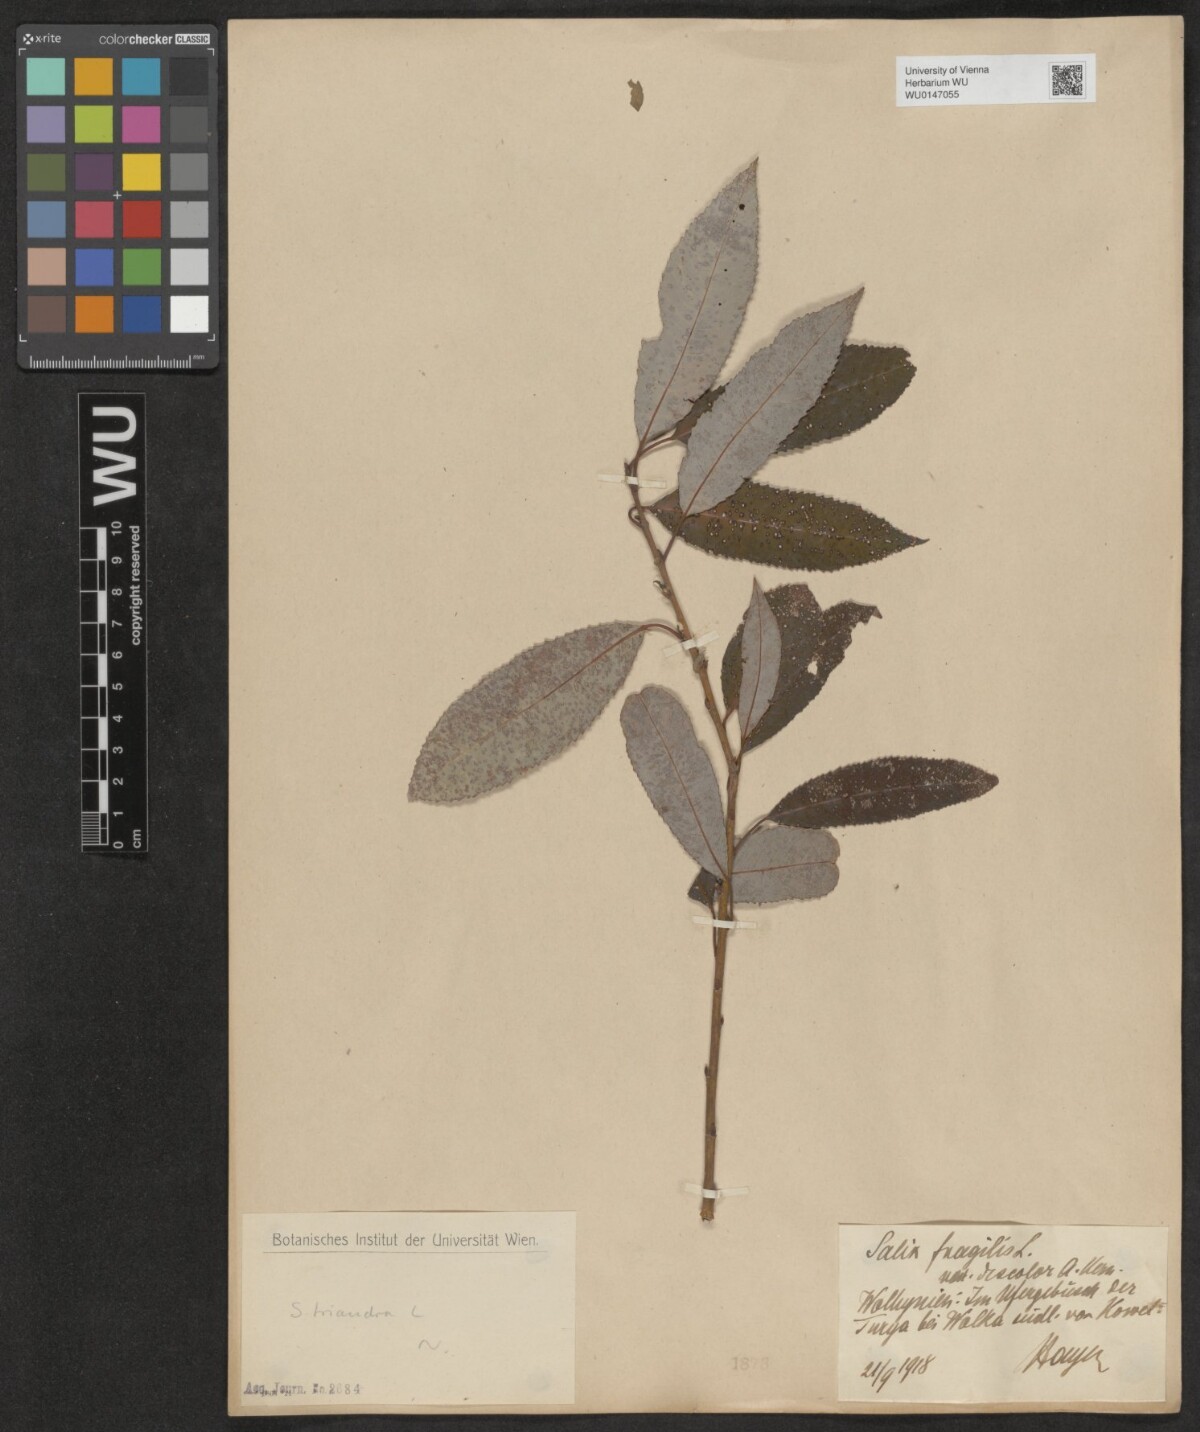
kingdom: Plantae
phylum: Tracheophyta
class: Magnoliopsida
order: Malpighiales
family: Salicaceae
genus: Salix
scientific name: Salix triandra
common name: Almond willow
